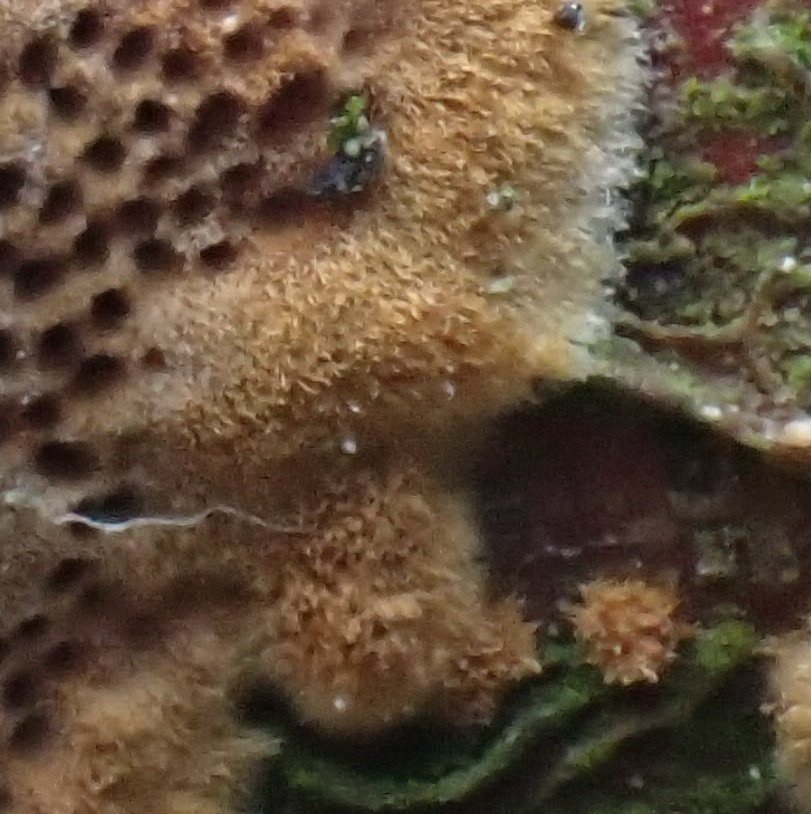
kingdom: Fungi
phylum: Basidiomycota
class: Agaricomycetes
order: Hymenochaetales
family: Hymenochaetaceae
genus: Fuscoporia
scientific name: Fuscoporia ferrea
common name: skorpe-ildporesvamp
